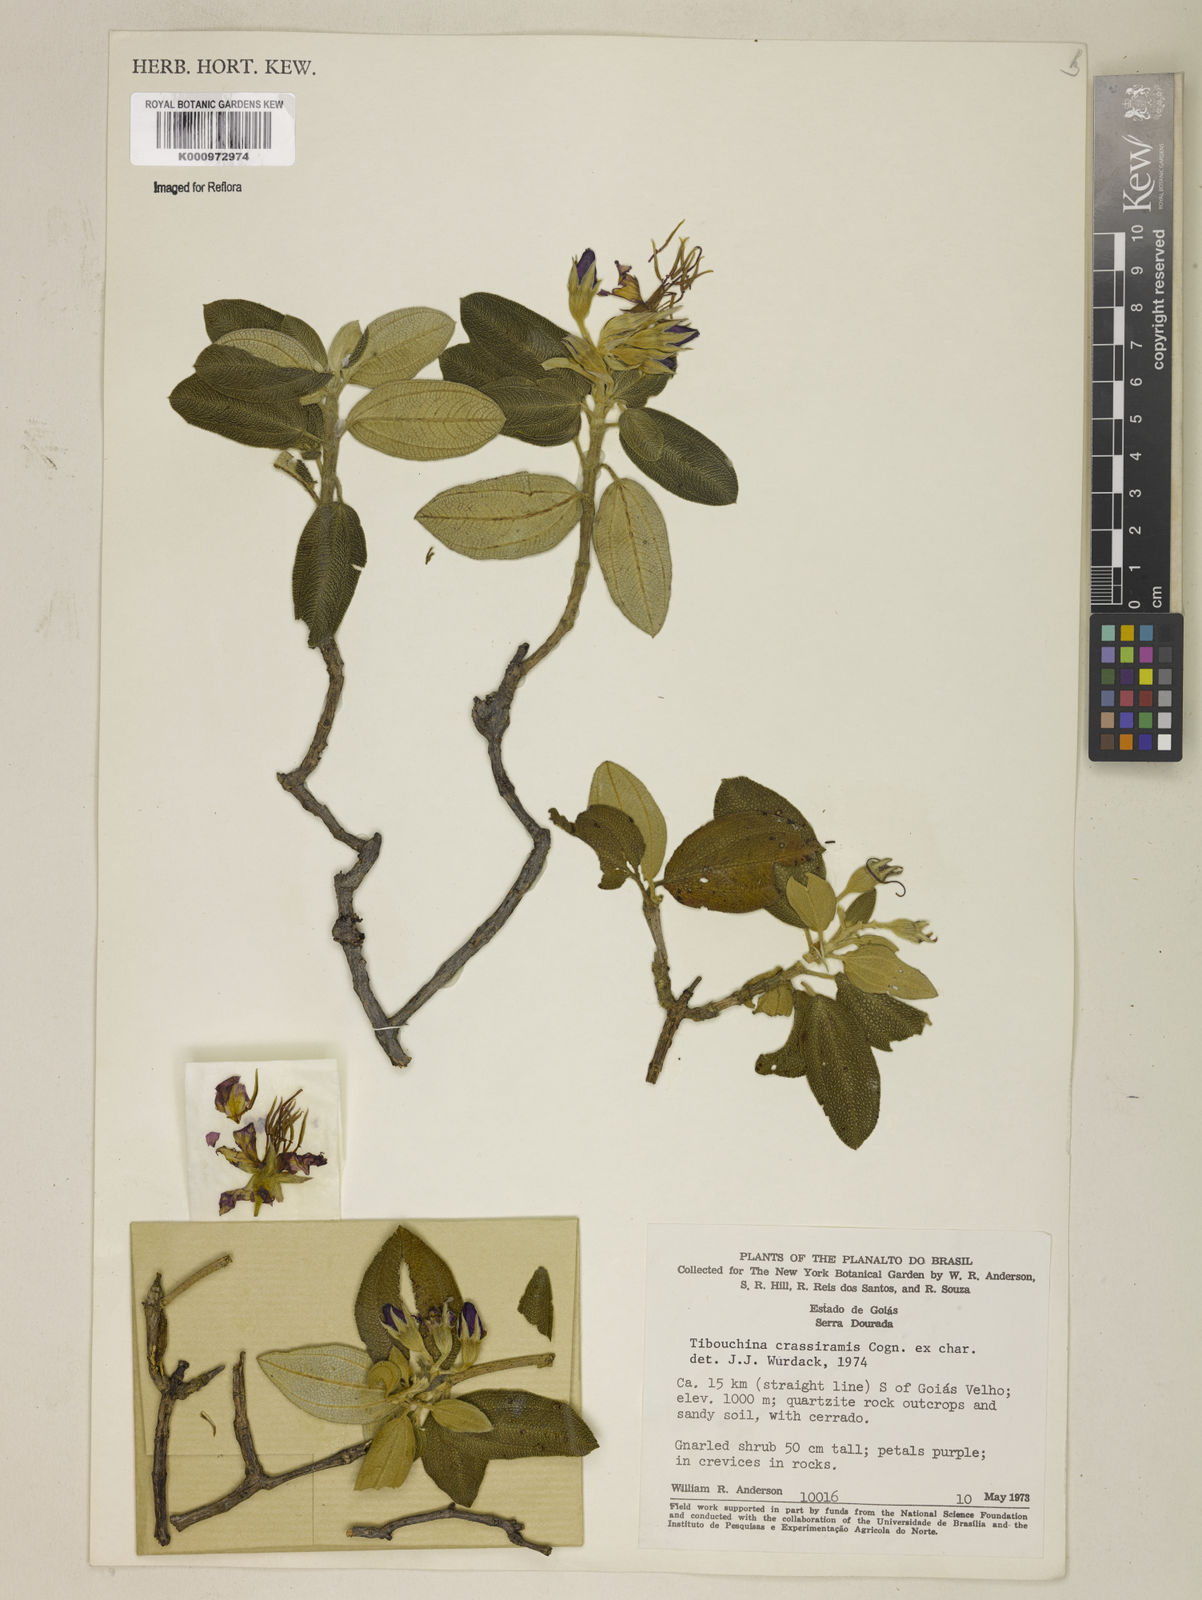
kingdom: Plantae
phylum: Tracheophyta
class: Magnoliopsida
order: Myrtales
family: Melastomataceae
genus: Pleroma
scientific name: Pleroma crassirame
